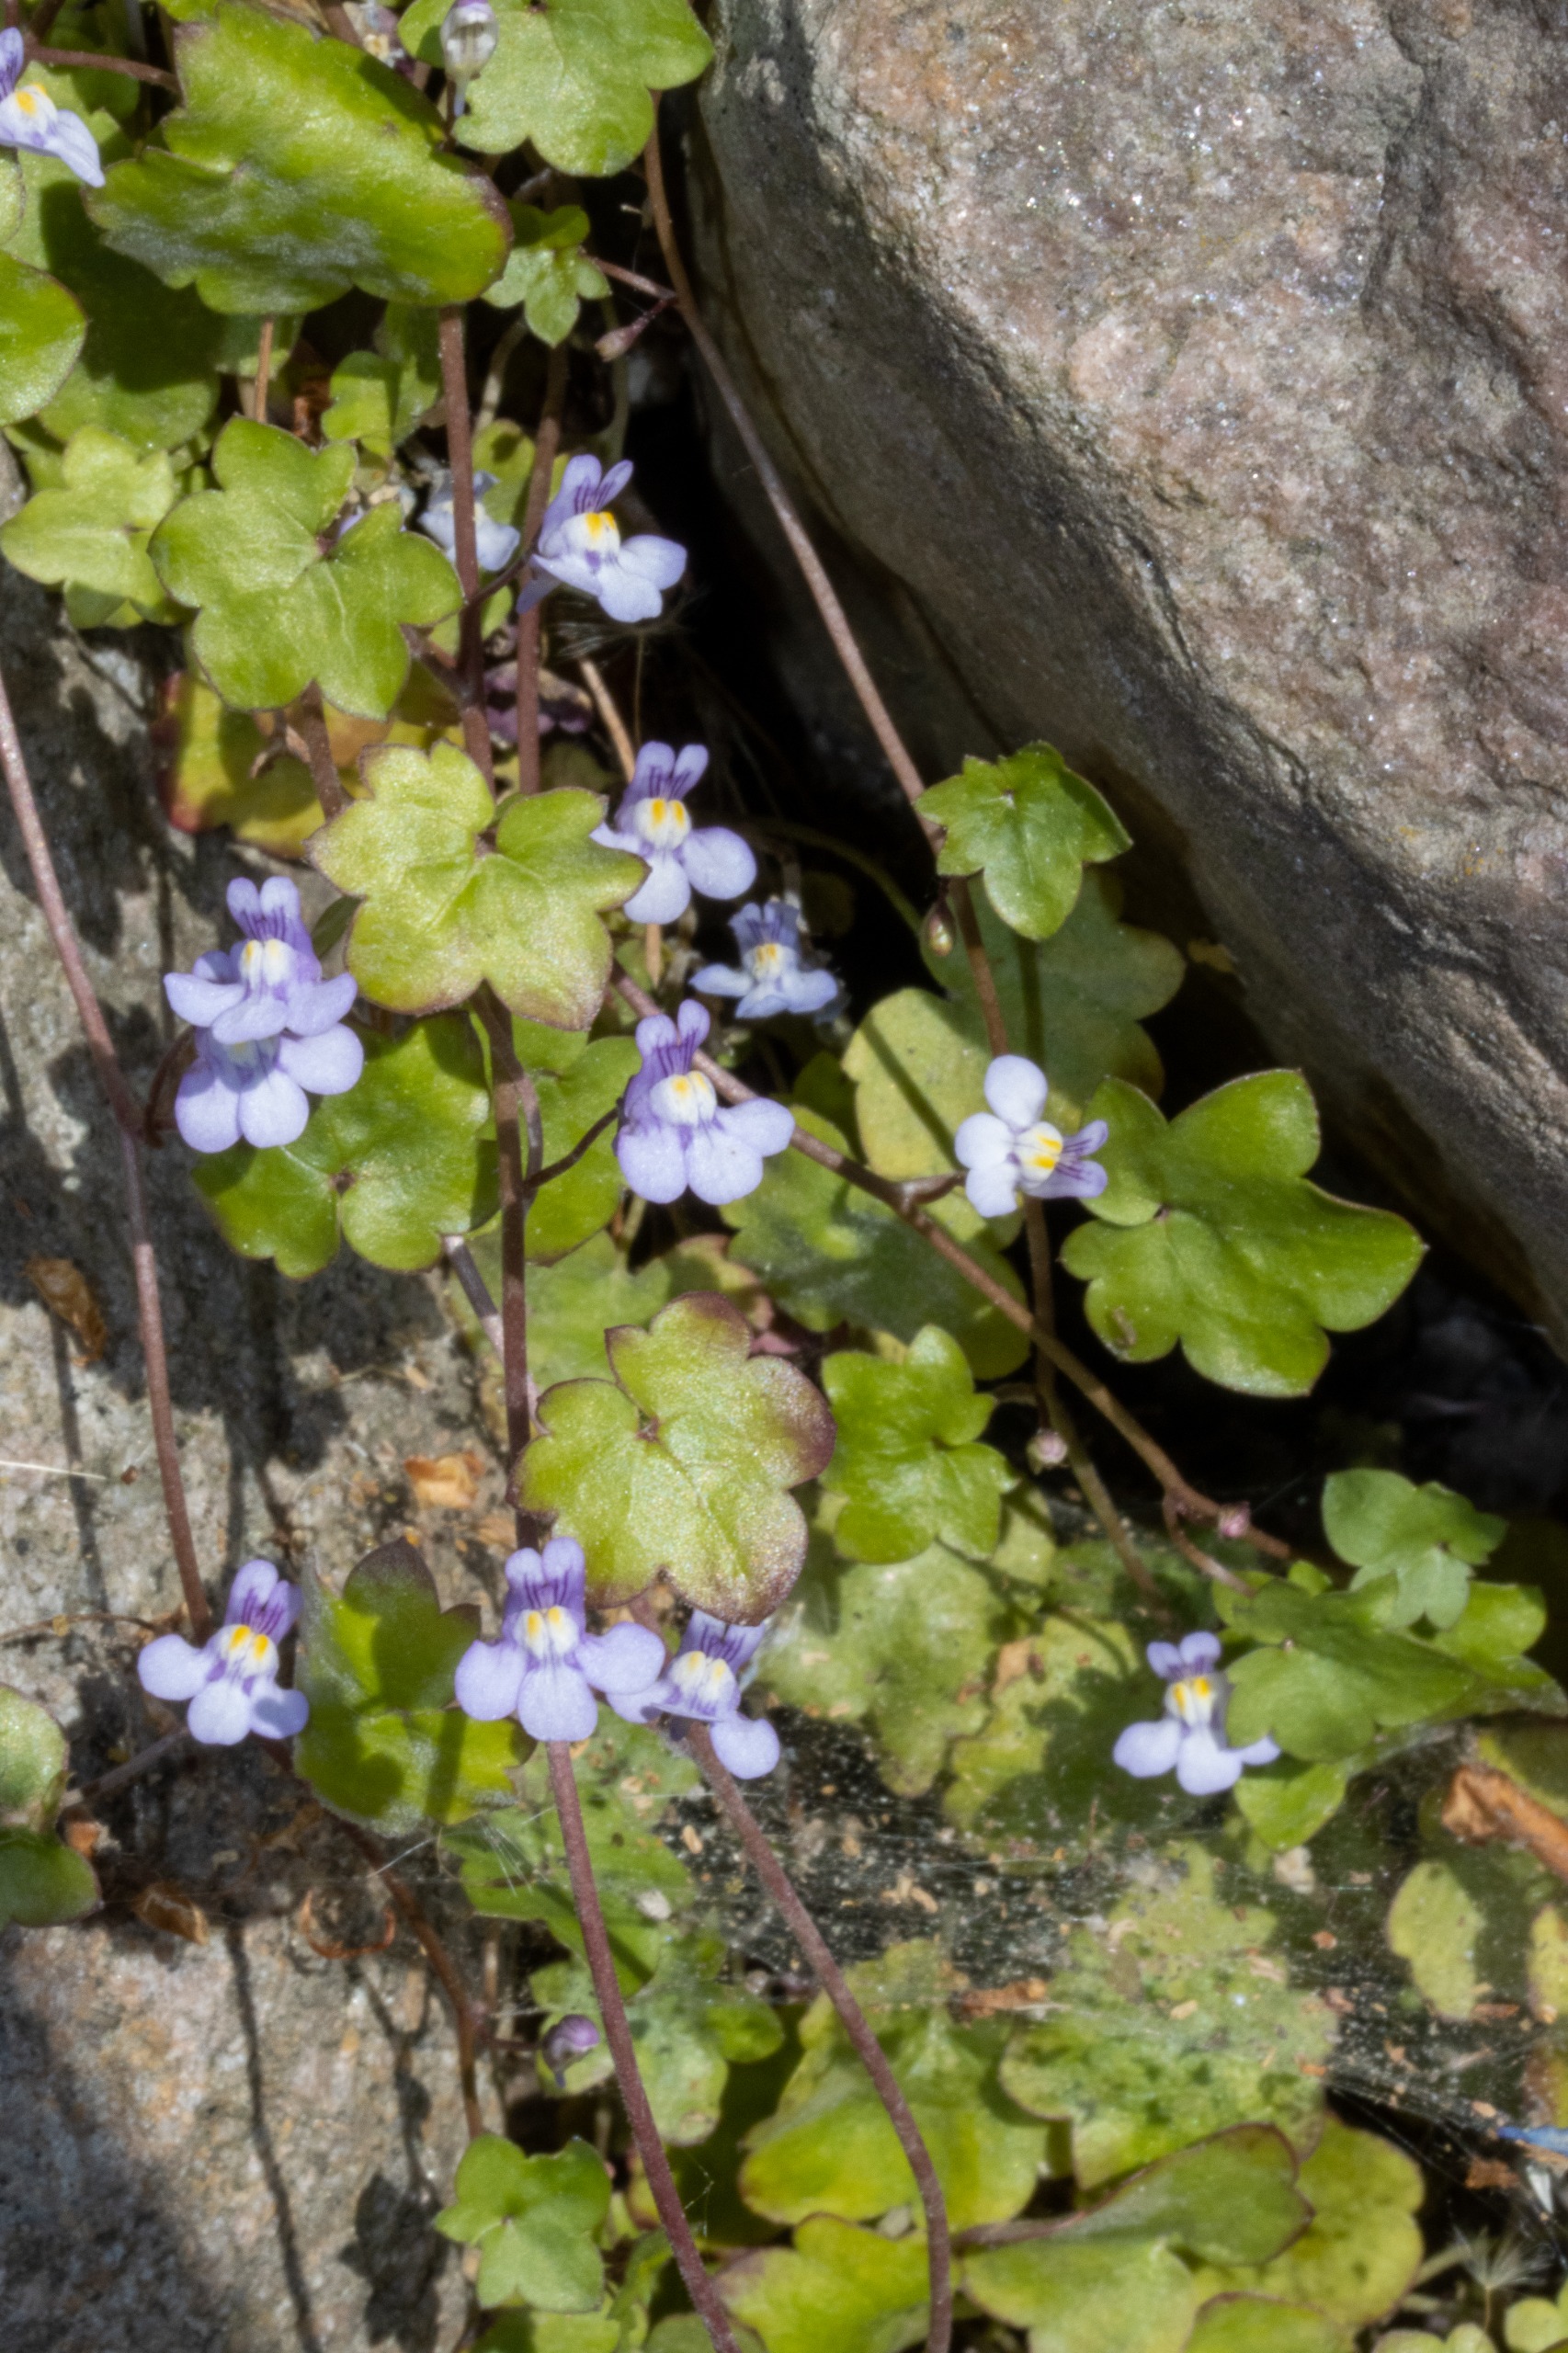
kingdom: Plantae
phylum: Tracheophyta
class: Magnoliopsida
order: Lamiales
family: Plantaginaceae
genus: Cymbalaria
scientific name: Cymbalaria muralis
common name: Vedbend-torskemund
